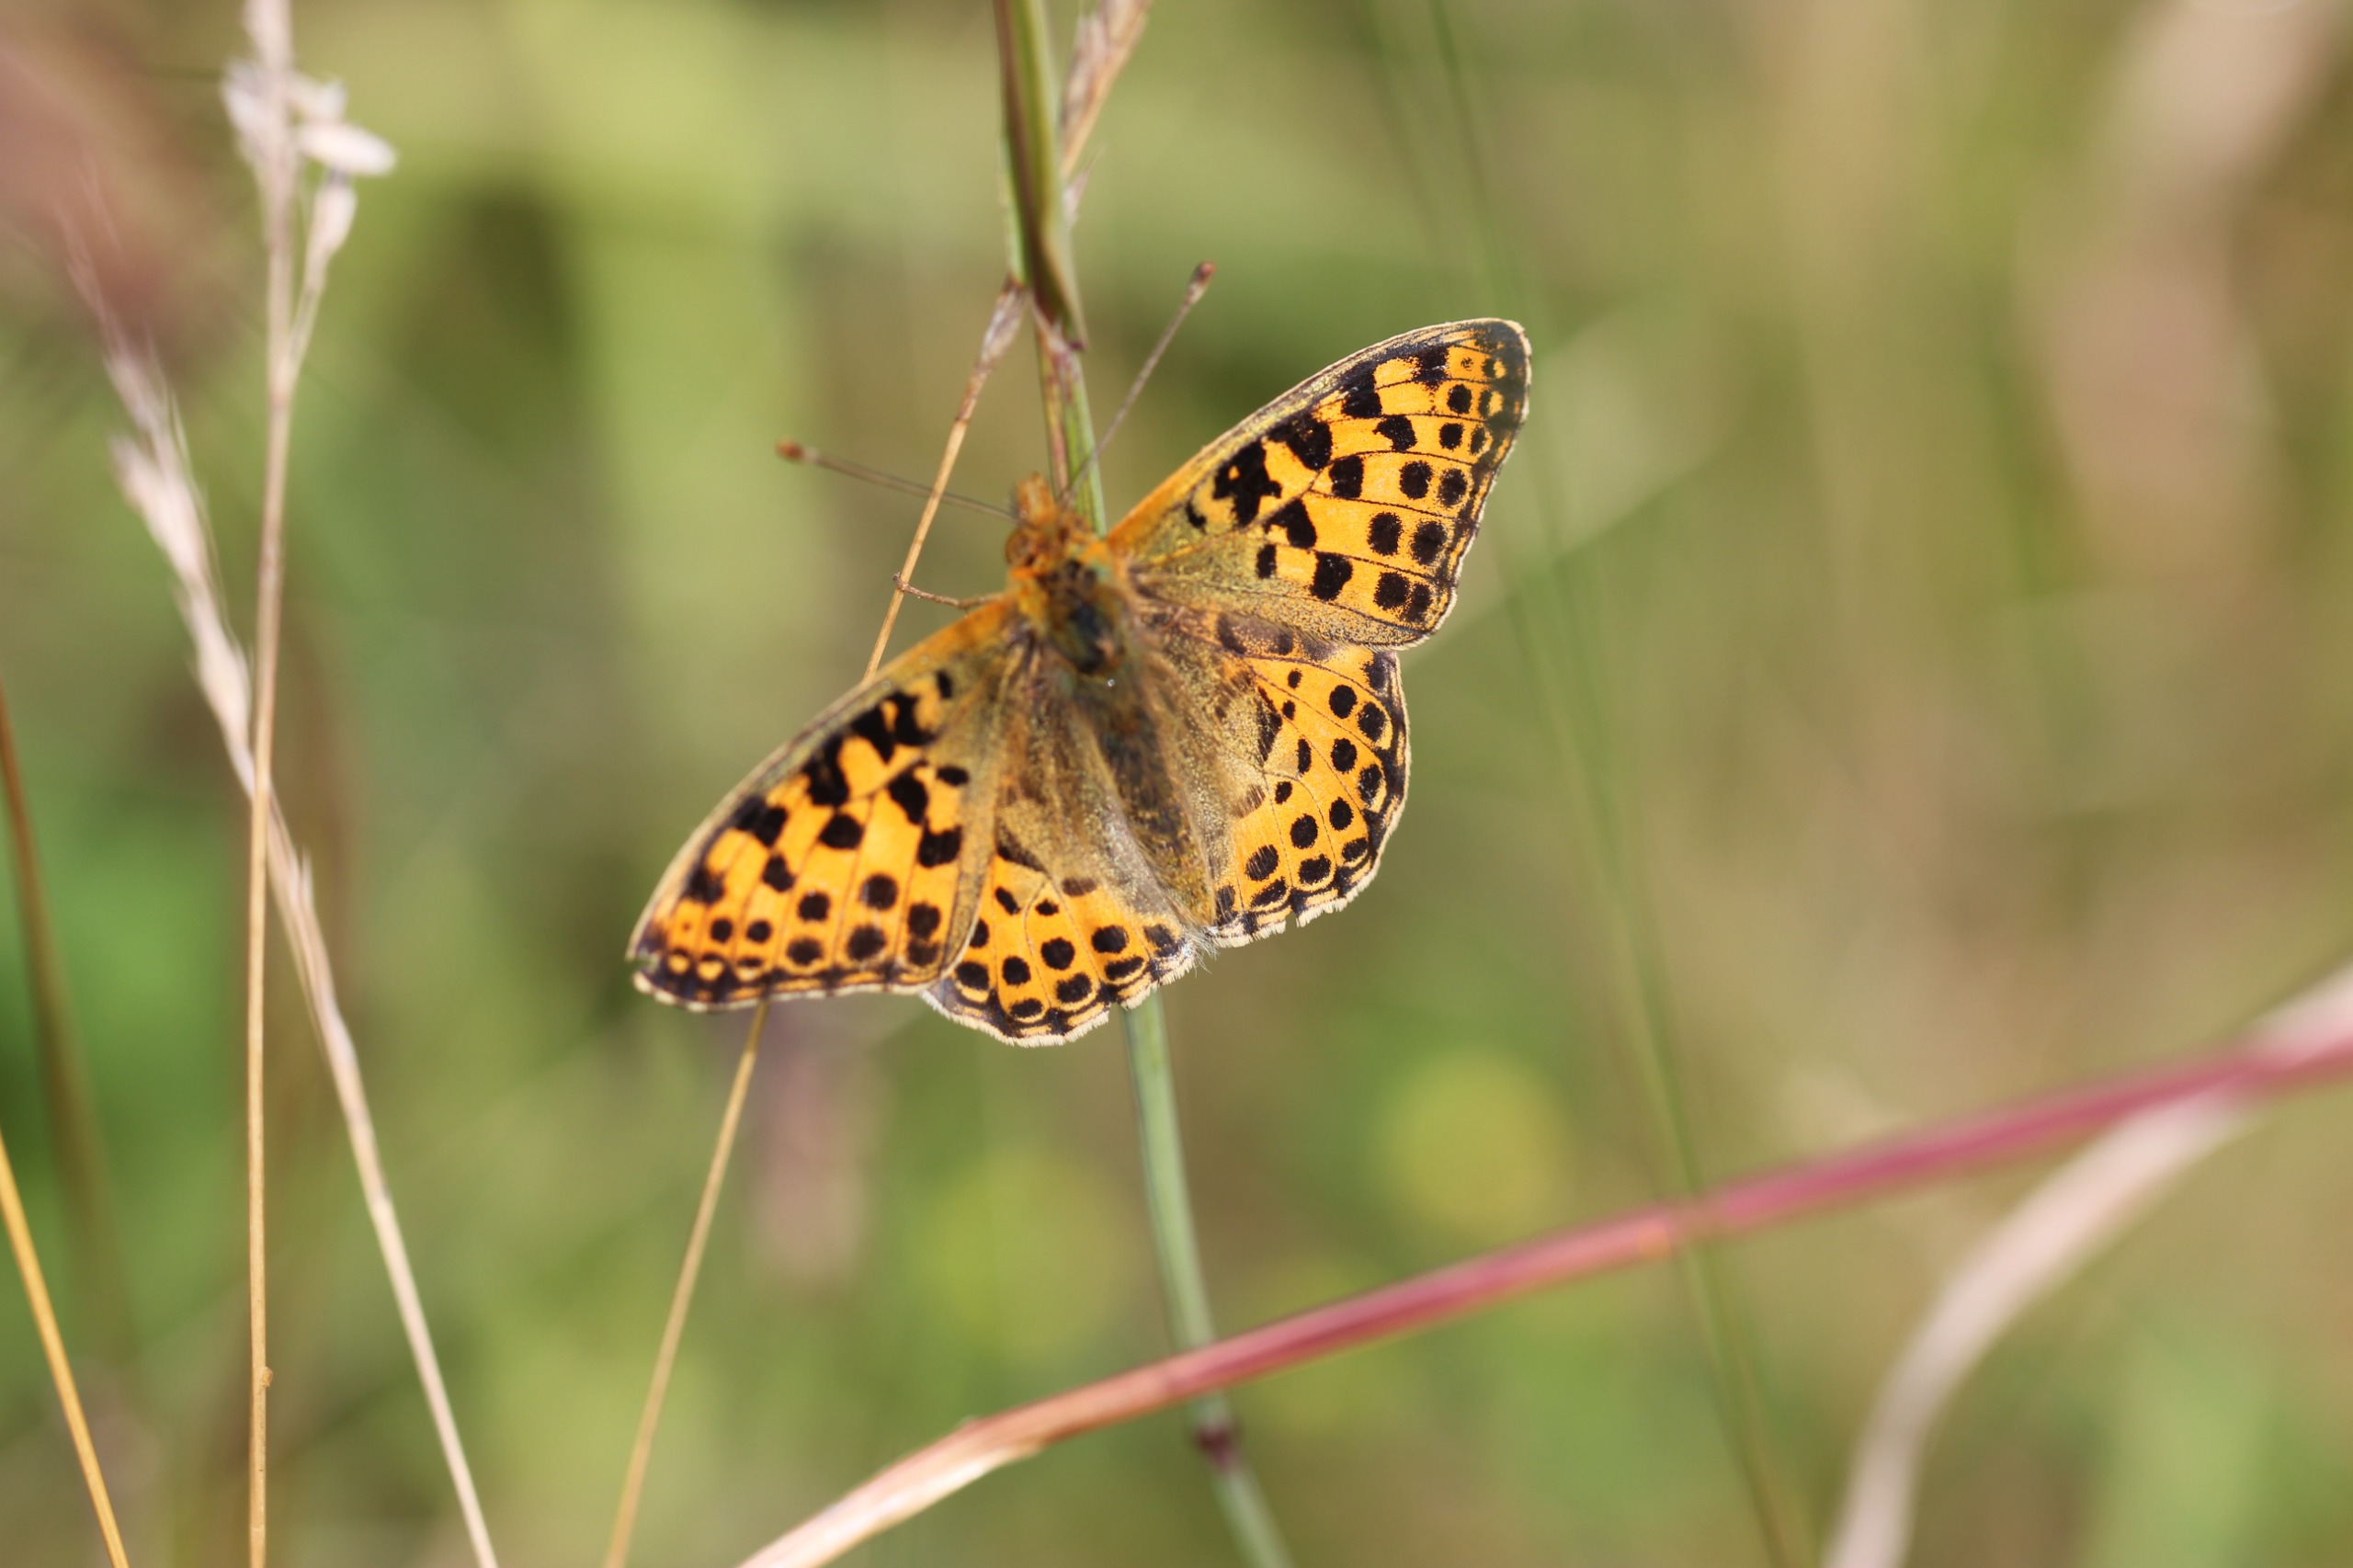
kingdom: Animalia
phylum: Arthropoda
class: Insecta
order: Lepidoptera
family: Nymphalidae
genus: Issoria
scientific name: Issoria lathonia
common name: Storplettet perlemorsommerfugl
